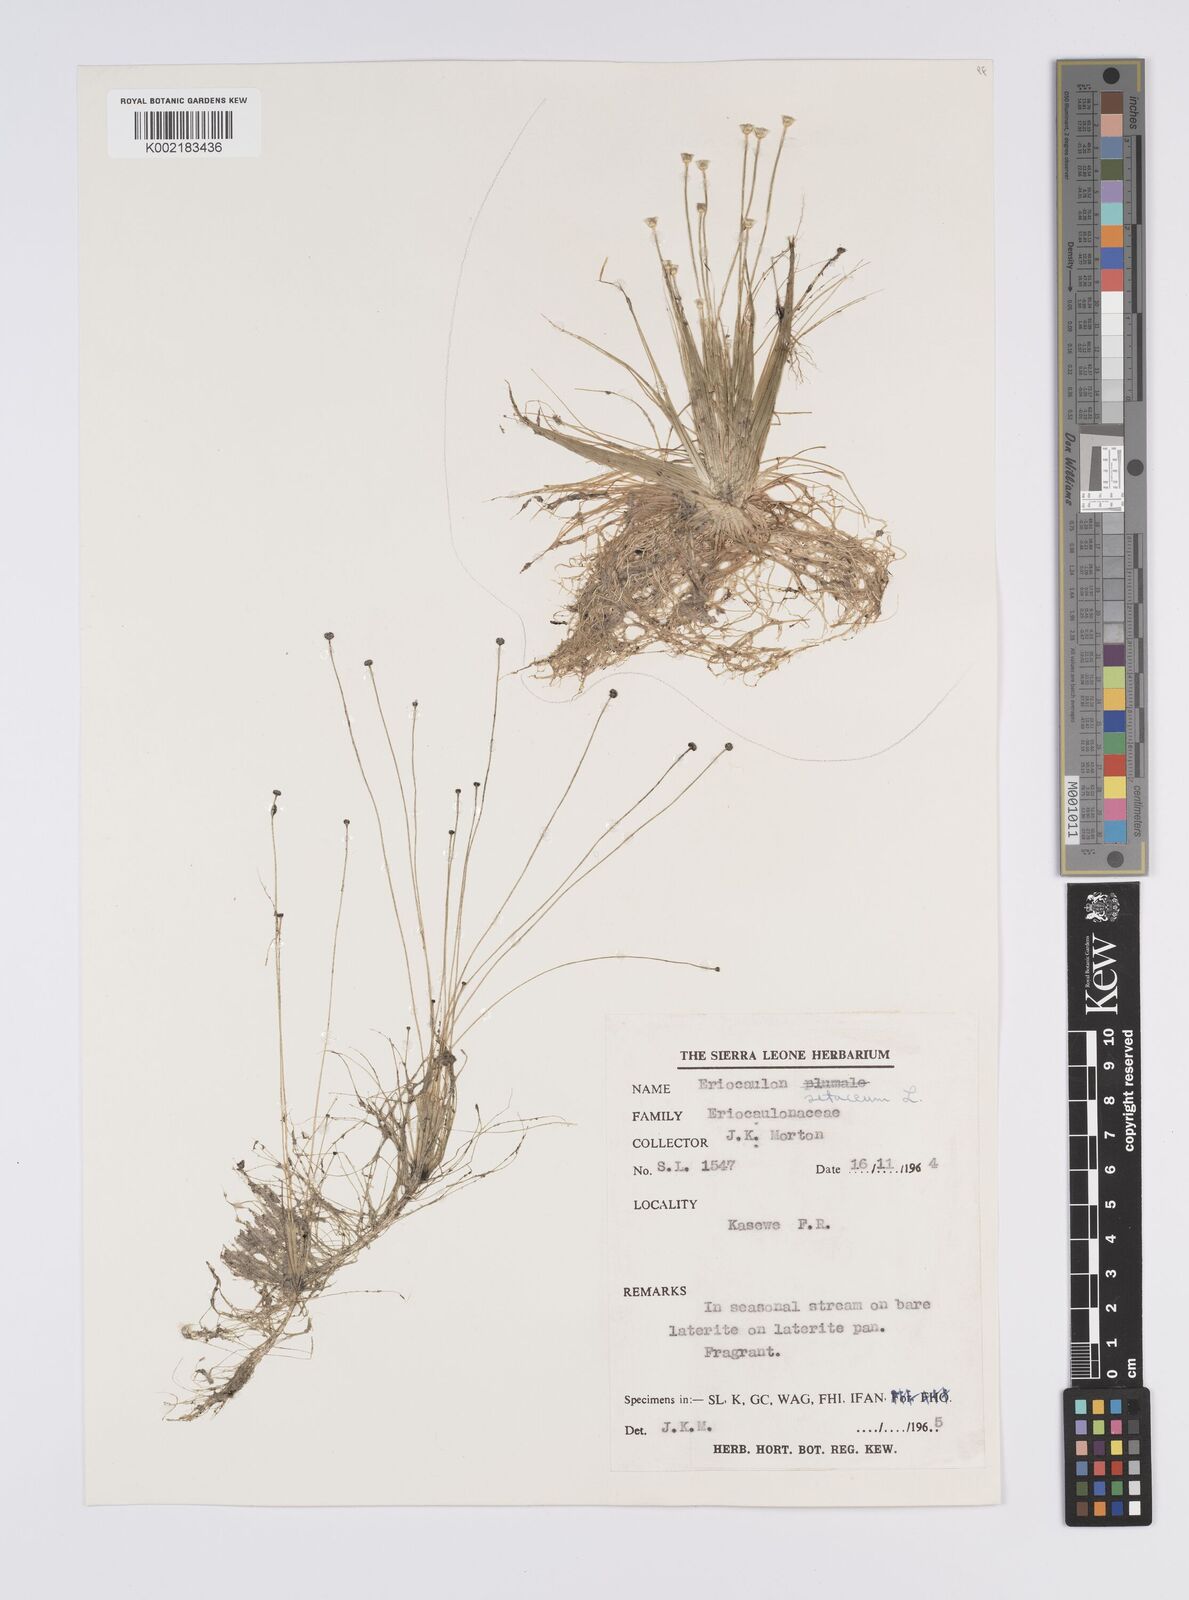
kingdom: Plantae
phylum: Tracheophyta
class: Liliopsida
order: Poales
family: Eriocaulaceae
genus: Eriocaulon
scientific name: Eriocaulon setaceum
